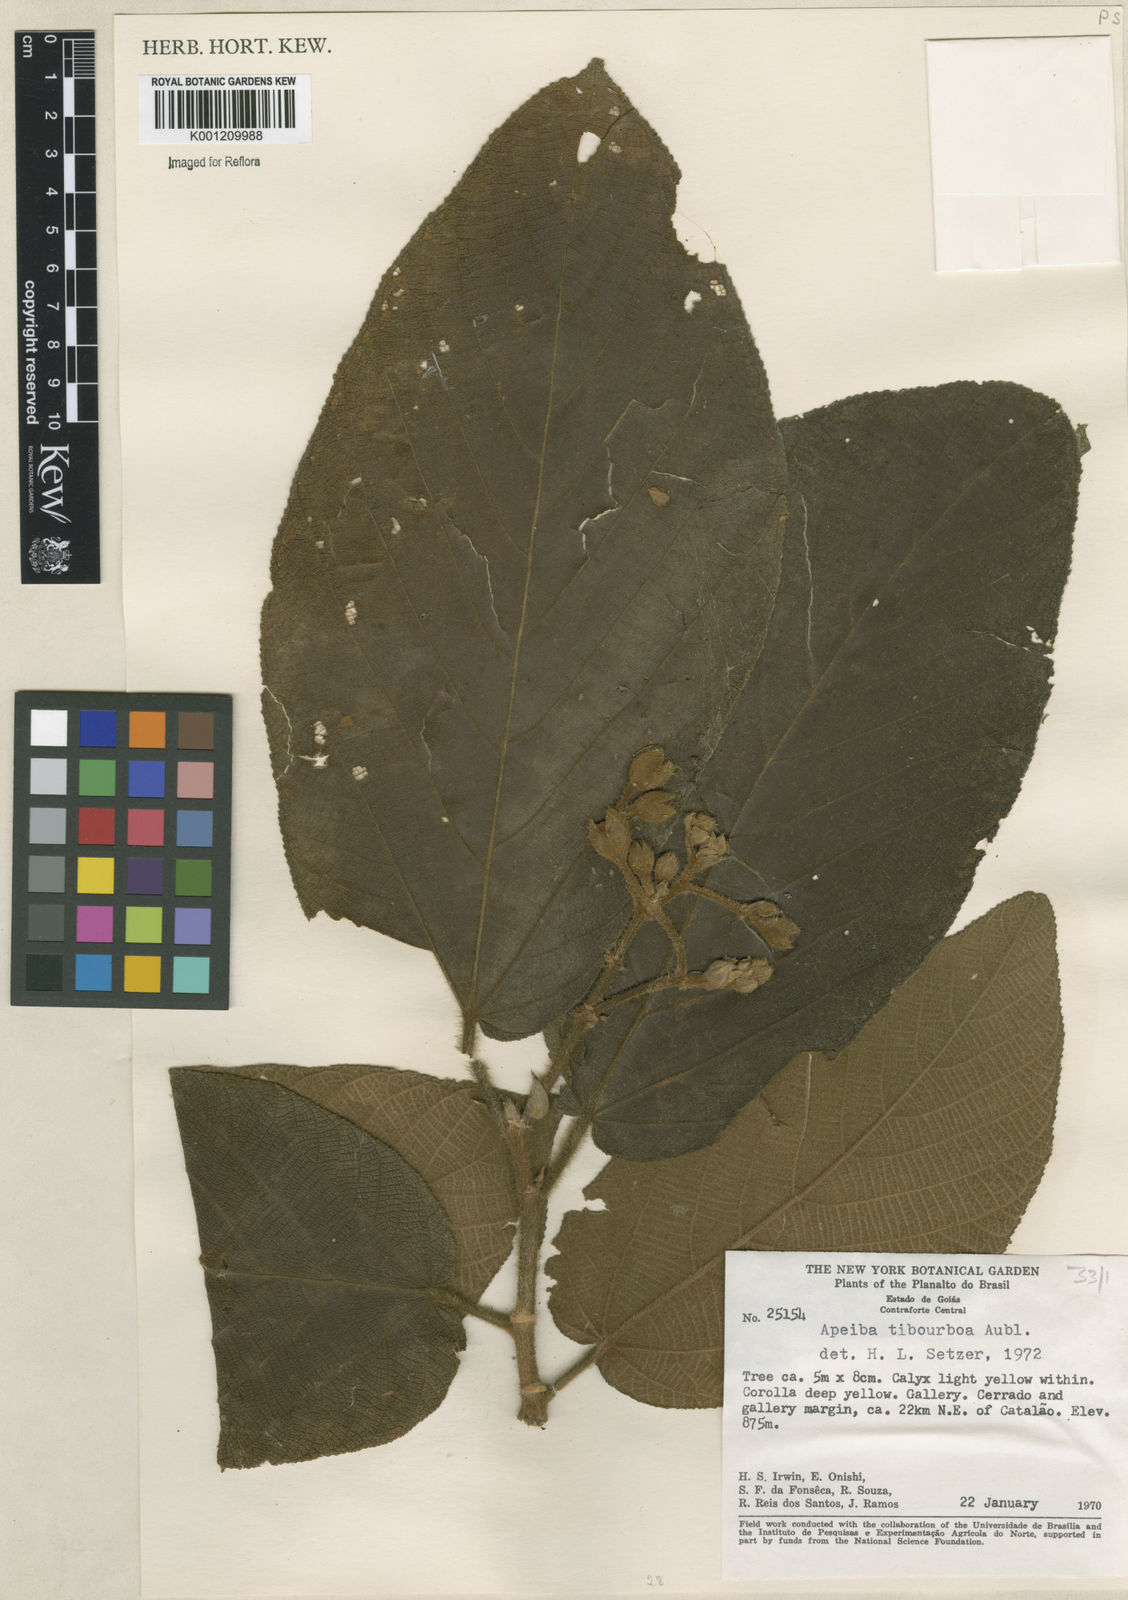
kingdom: Plantae
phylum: Tracheophyta
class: Magnoliopsida
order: Malvales
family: Malvaceae
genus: Apeiba
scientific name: Apeiba tibourbou
